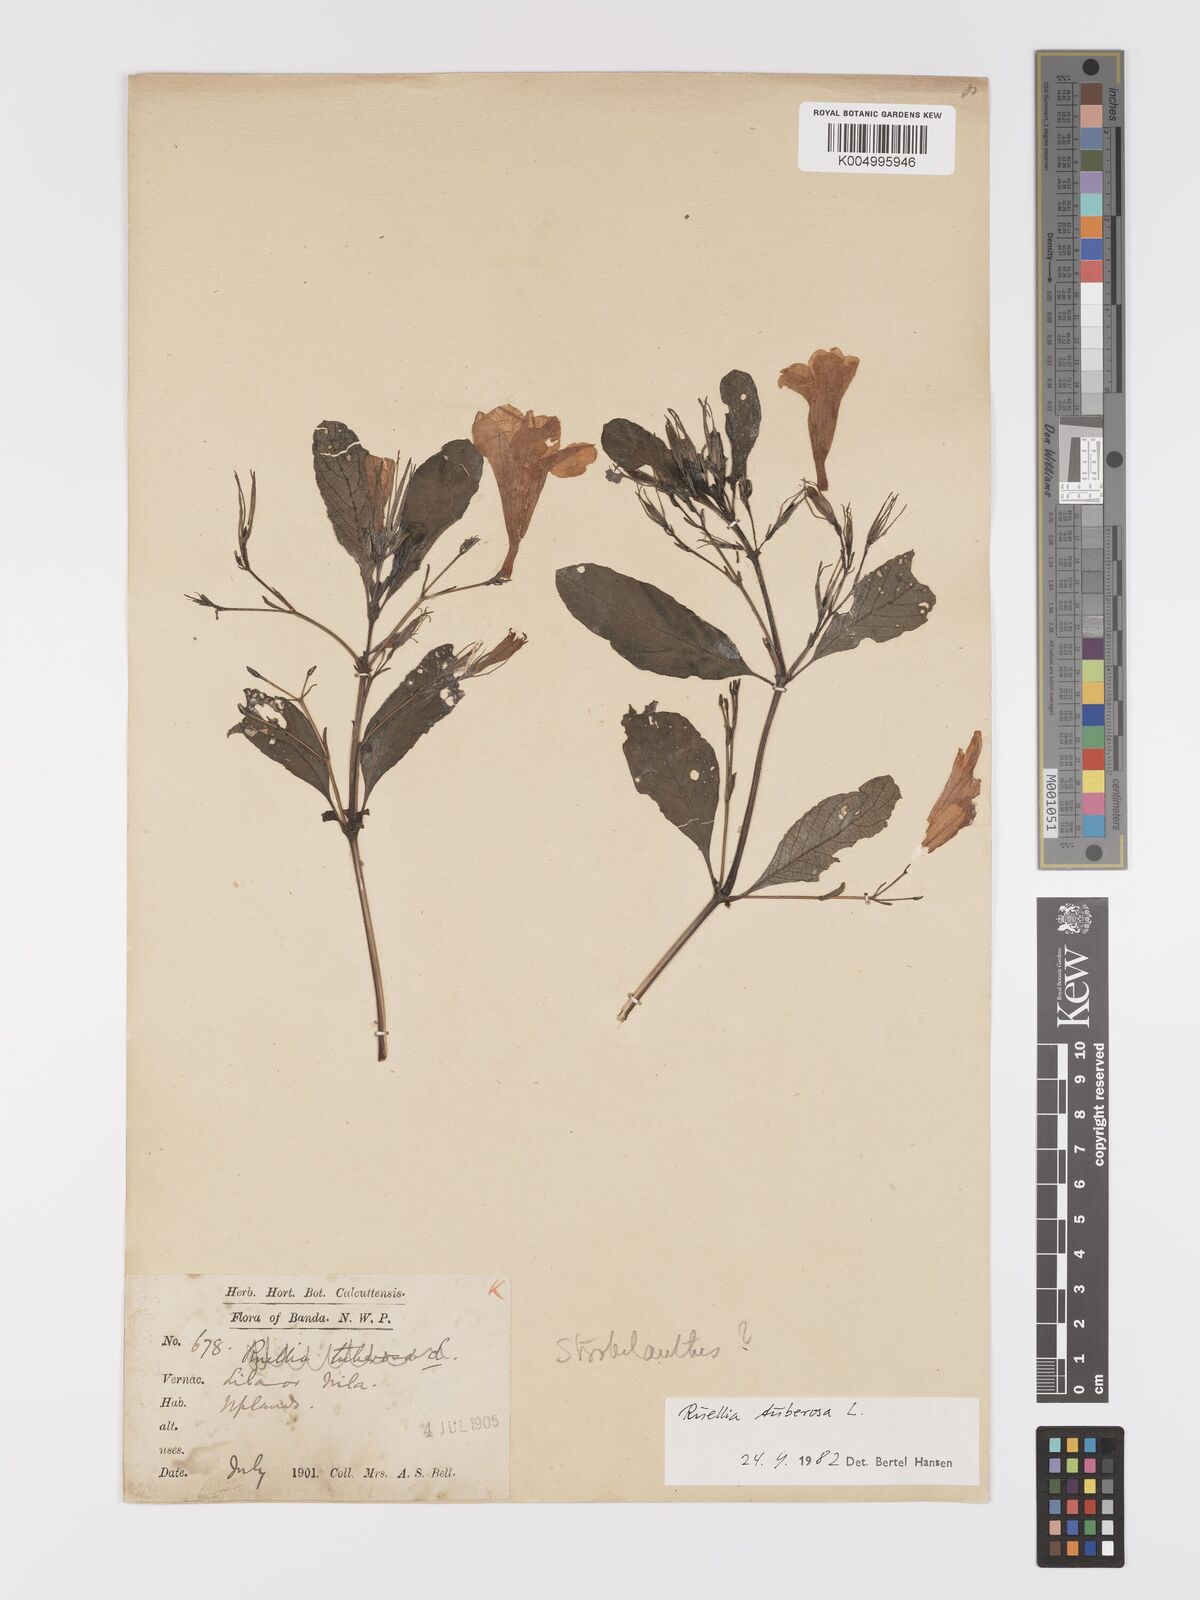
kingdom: Plantae
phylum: Tracheophyta
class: Magnoliopsida
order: Lamiales
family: Acanthaceae
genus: Ruellia
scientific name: Ruellia tuberosa
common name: Devil's bit
